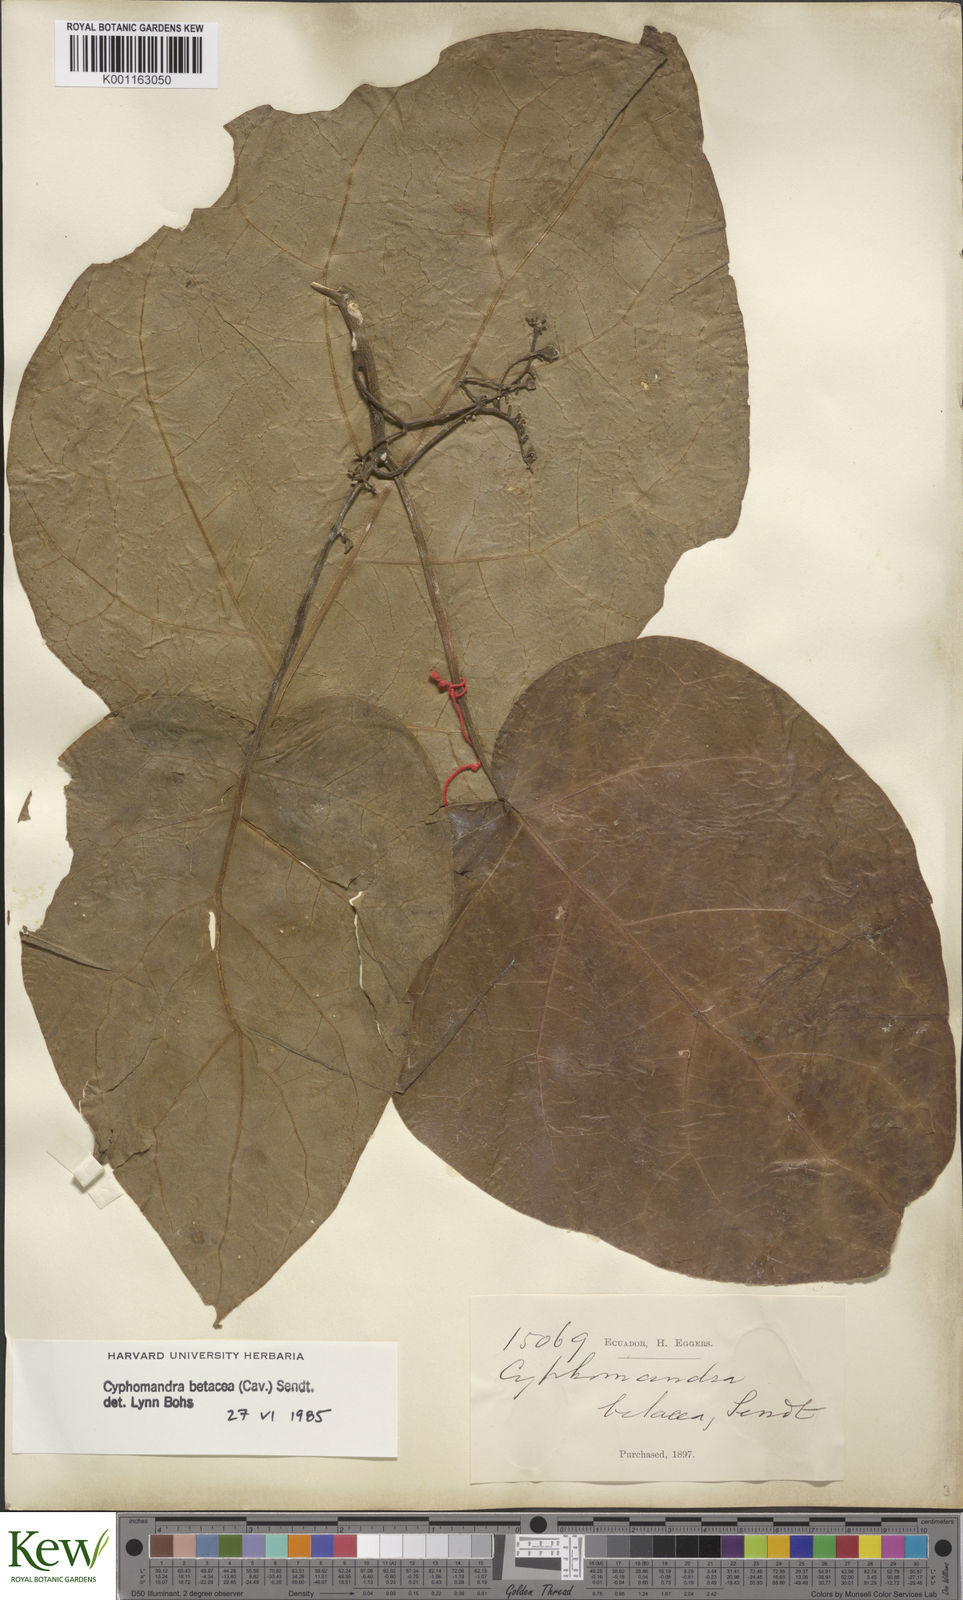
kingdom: Plantae
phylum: Tracheophyta
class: Magnoliopsida
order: Solanales
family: Solanaceae
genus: Solanum
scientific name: Solanum betaceum
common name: Tamarillo
